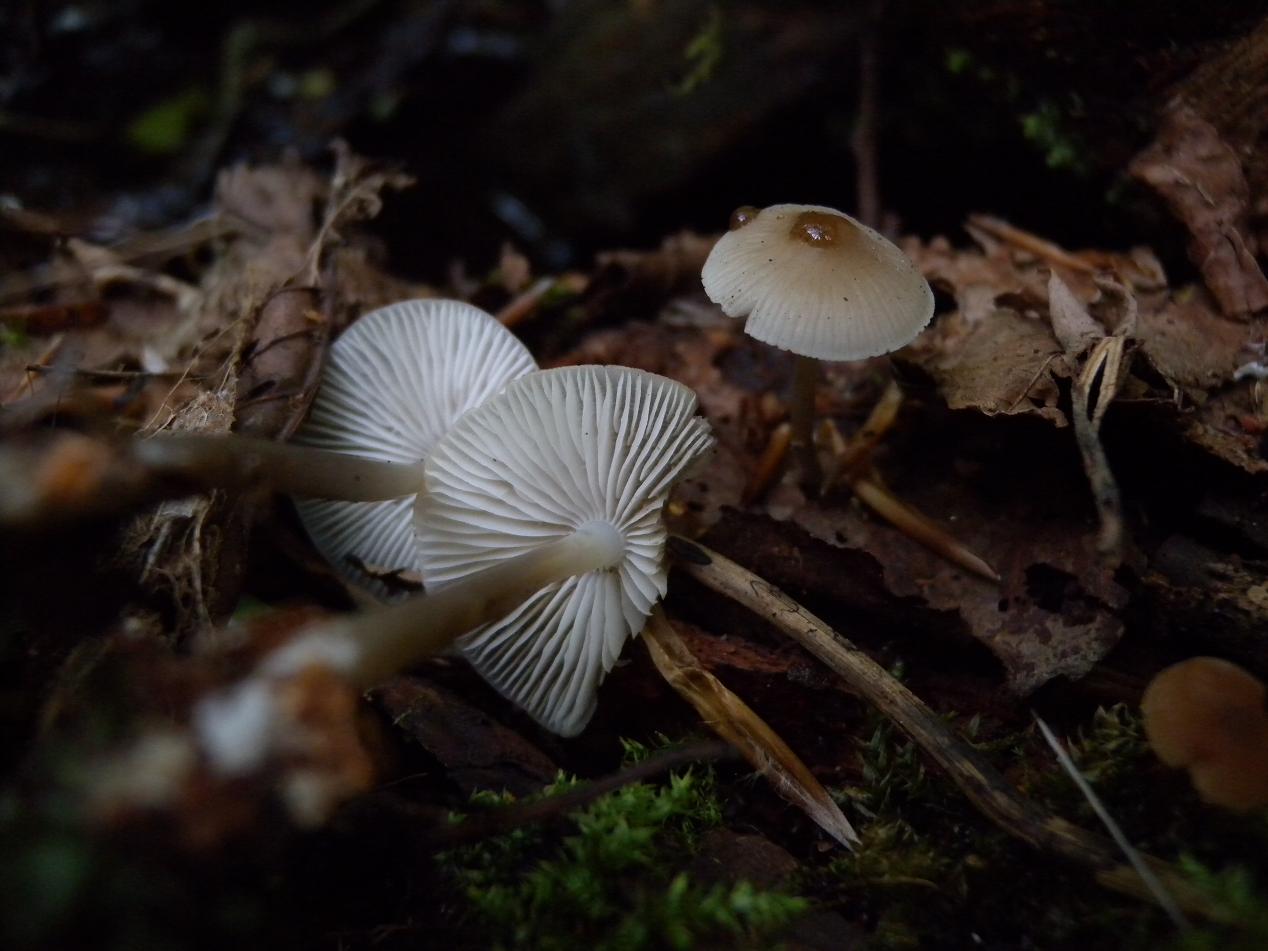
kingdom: Fungi
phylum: Basidiomycota
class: Agaricomycetes
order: Agaricales
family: Mycenaceae
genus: Mycena
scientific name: Mycena galericulata
